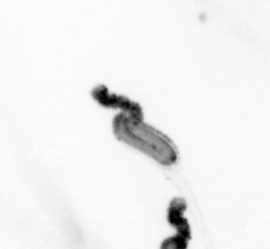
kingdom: Animalia
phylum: Chaetognatha
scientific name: Chaetognatha
